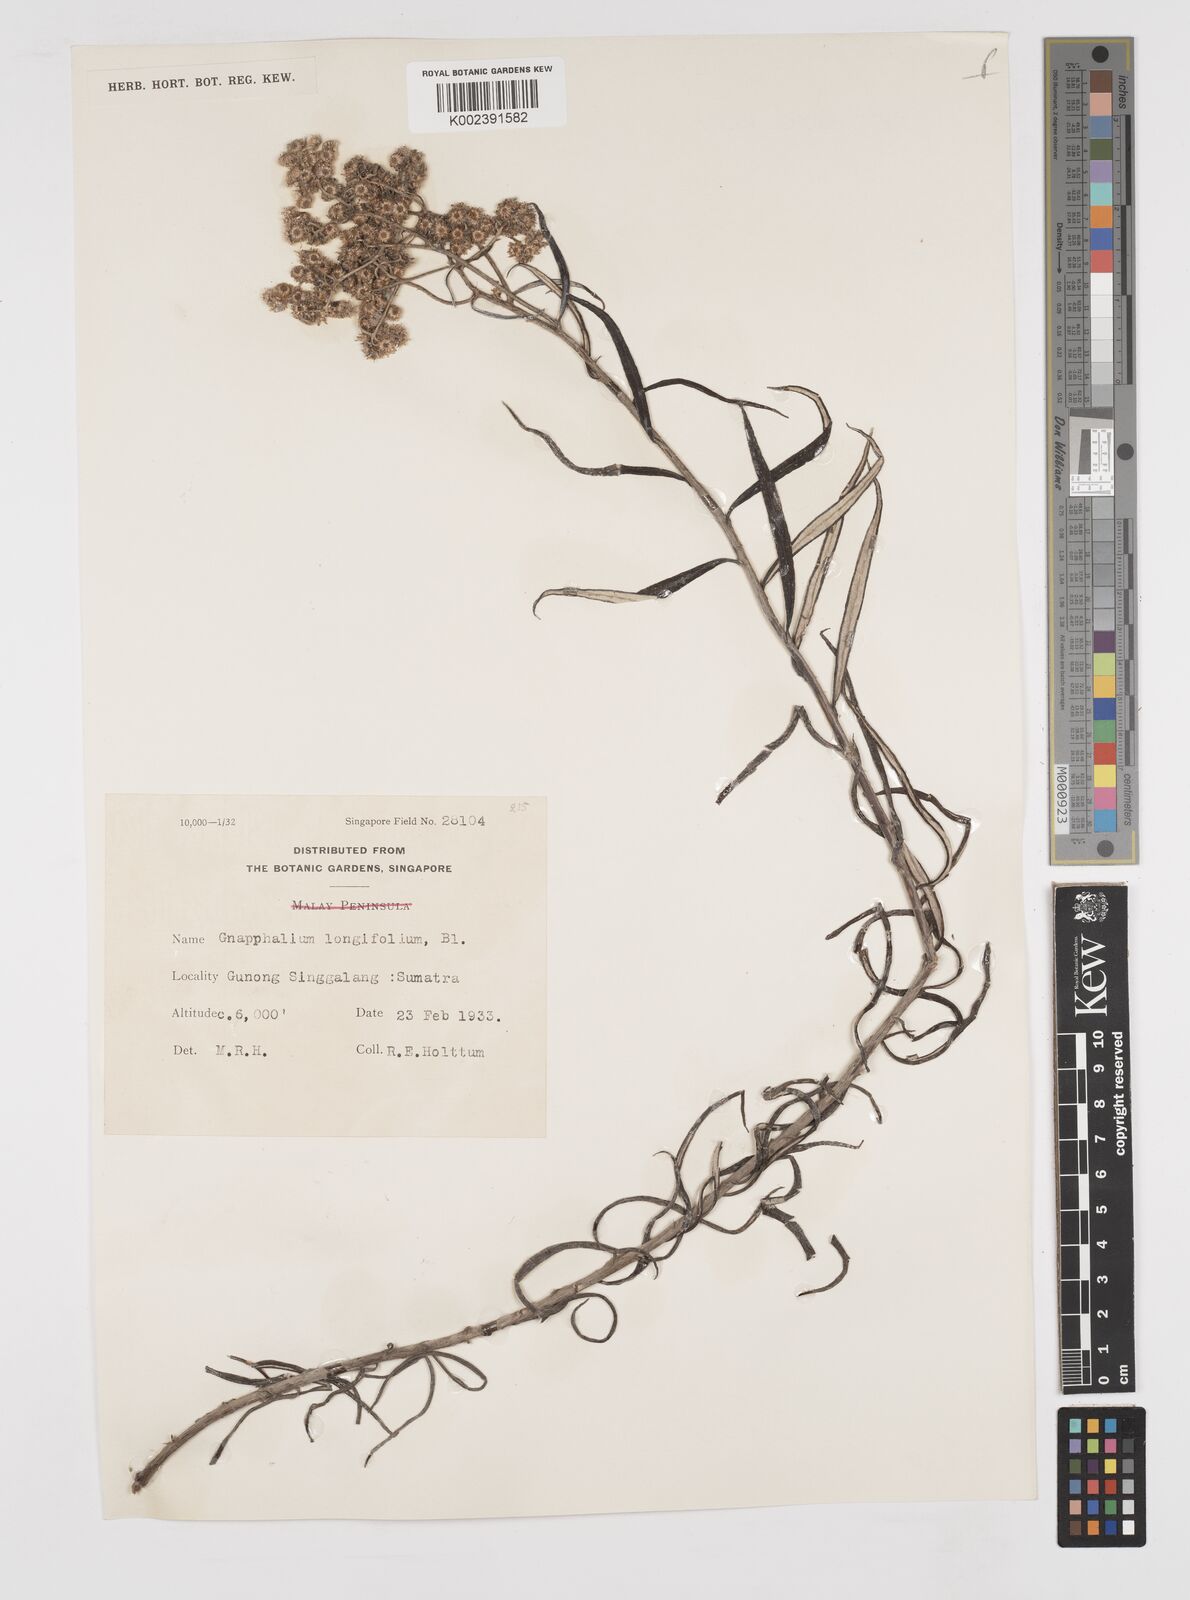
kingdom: Plantae
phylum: Tracheophyta
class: Magnoliopsida
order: Asterales
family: Asteraceae
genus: Anaphalis
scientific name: Anaphalis longifolia
